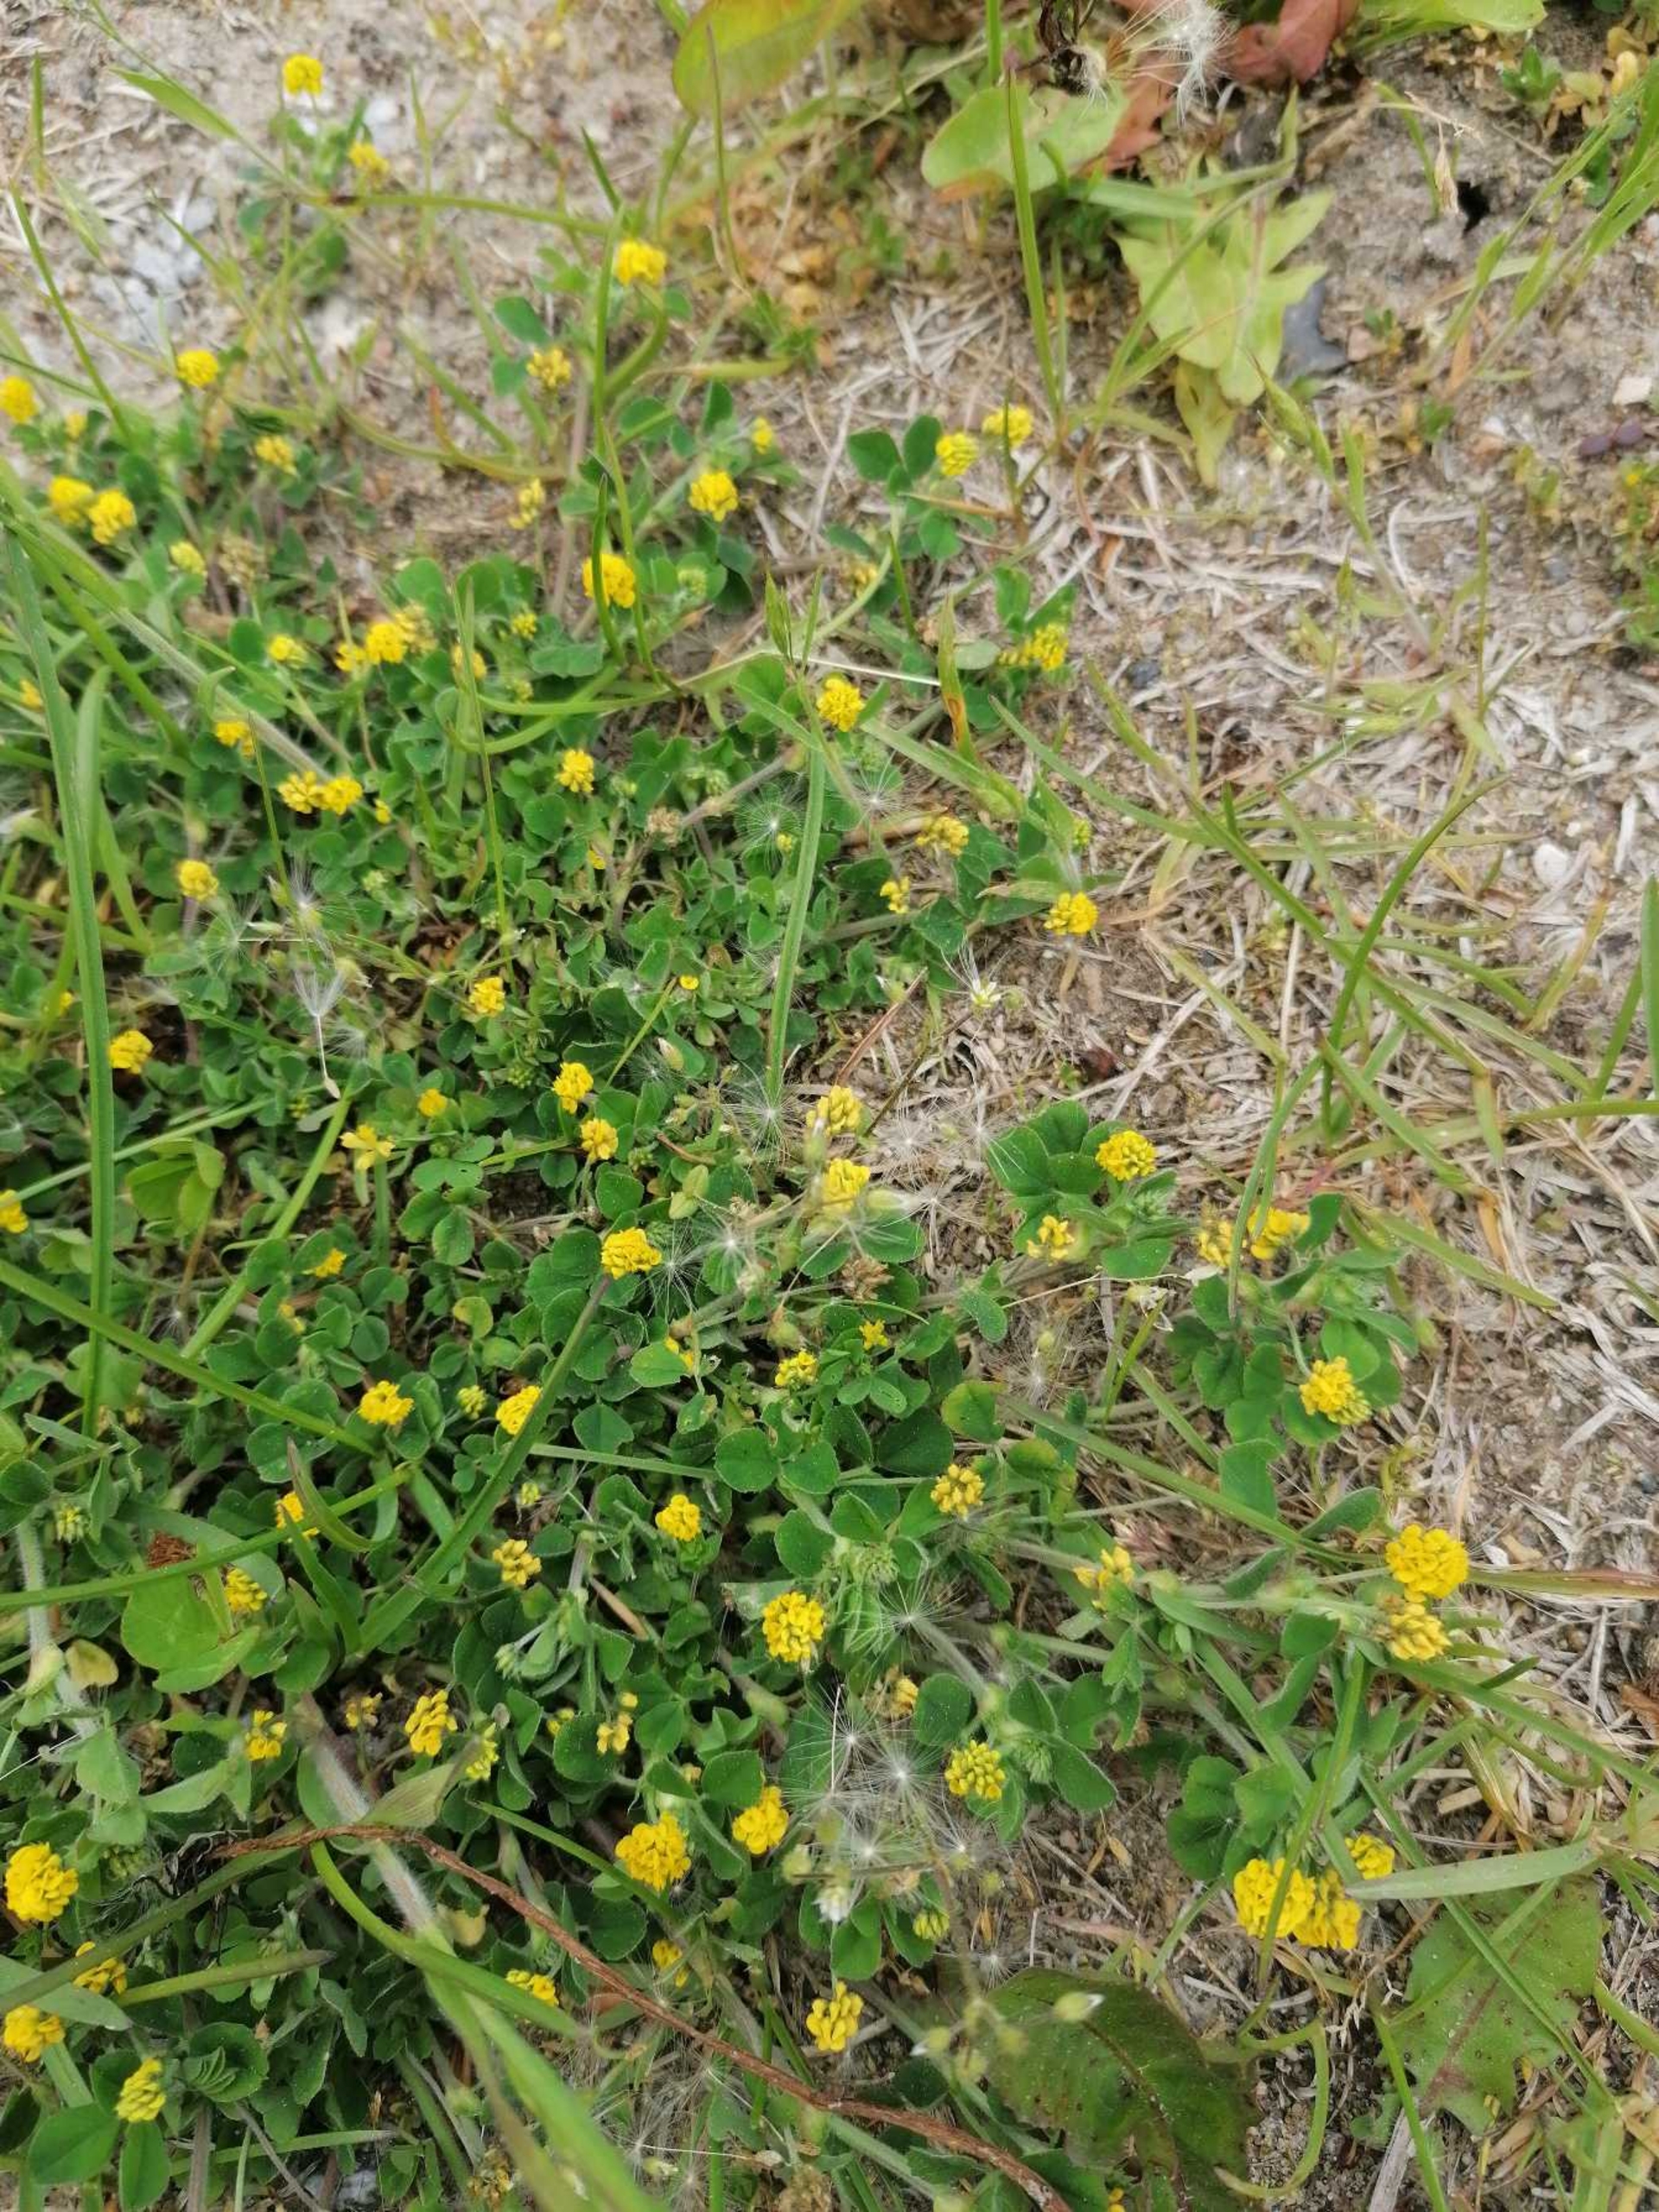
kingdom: Plantae
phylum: Tracheophyta
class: Magnoliopsida
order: Fabales
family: Fabaceae
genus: Medicago
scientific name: Medicago lupulina
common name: Humle-sneglebælg
